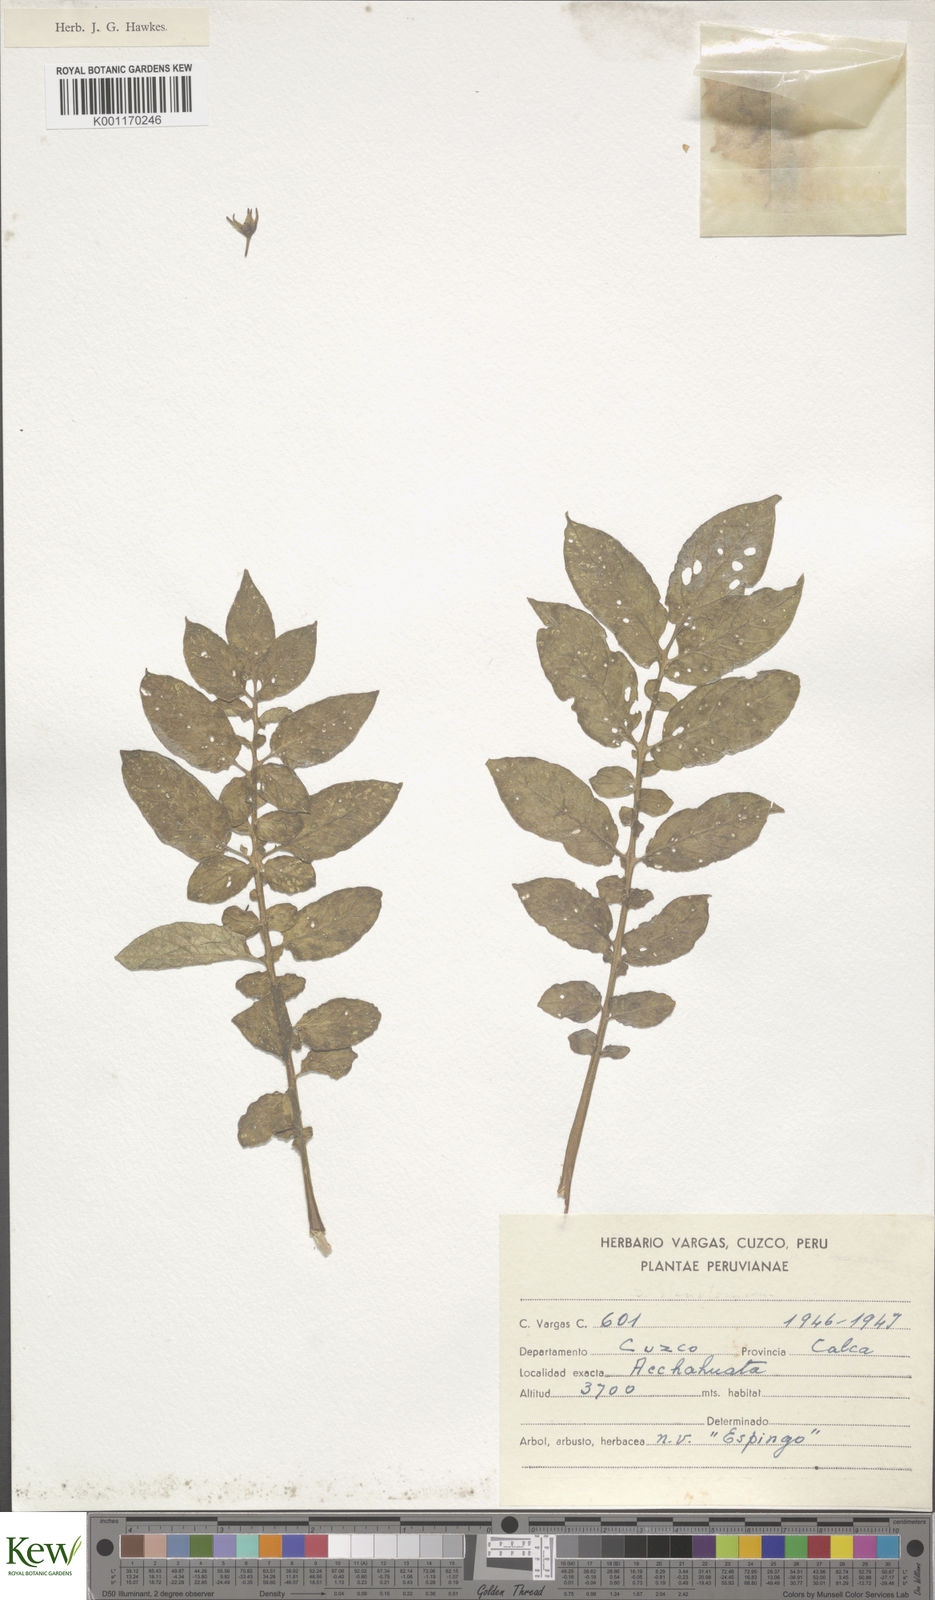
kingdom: Plantae
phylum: Tracheophyta
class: Magnoliopsida
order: Solanales
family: Solanaceae
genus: Solanum
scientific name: Solanum tuberosum
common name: Potato
